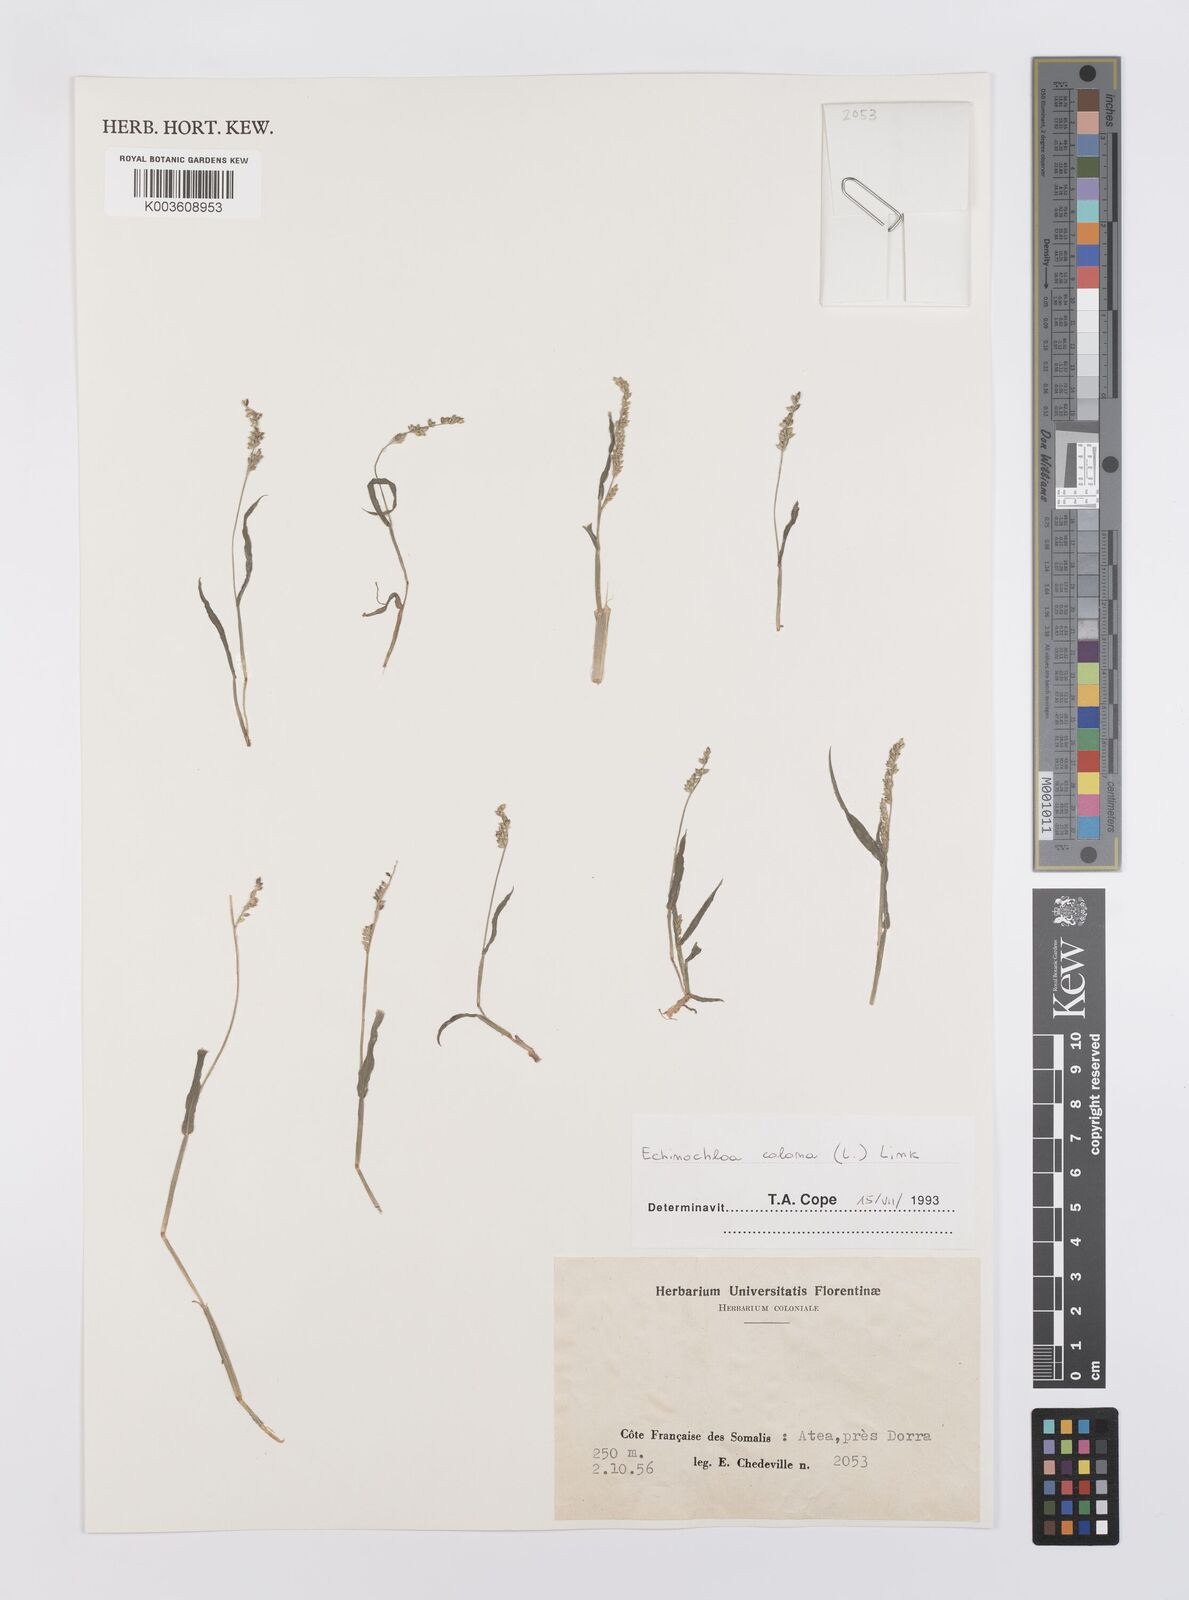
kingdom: Plantae
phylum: Tracheophyta
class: Liliopsida
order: Poales
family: Poaceae
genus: Echinochloa
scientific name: Echinochloa colonum
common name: Jungle rice
